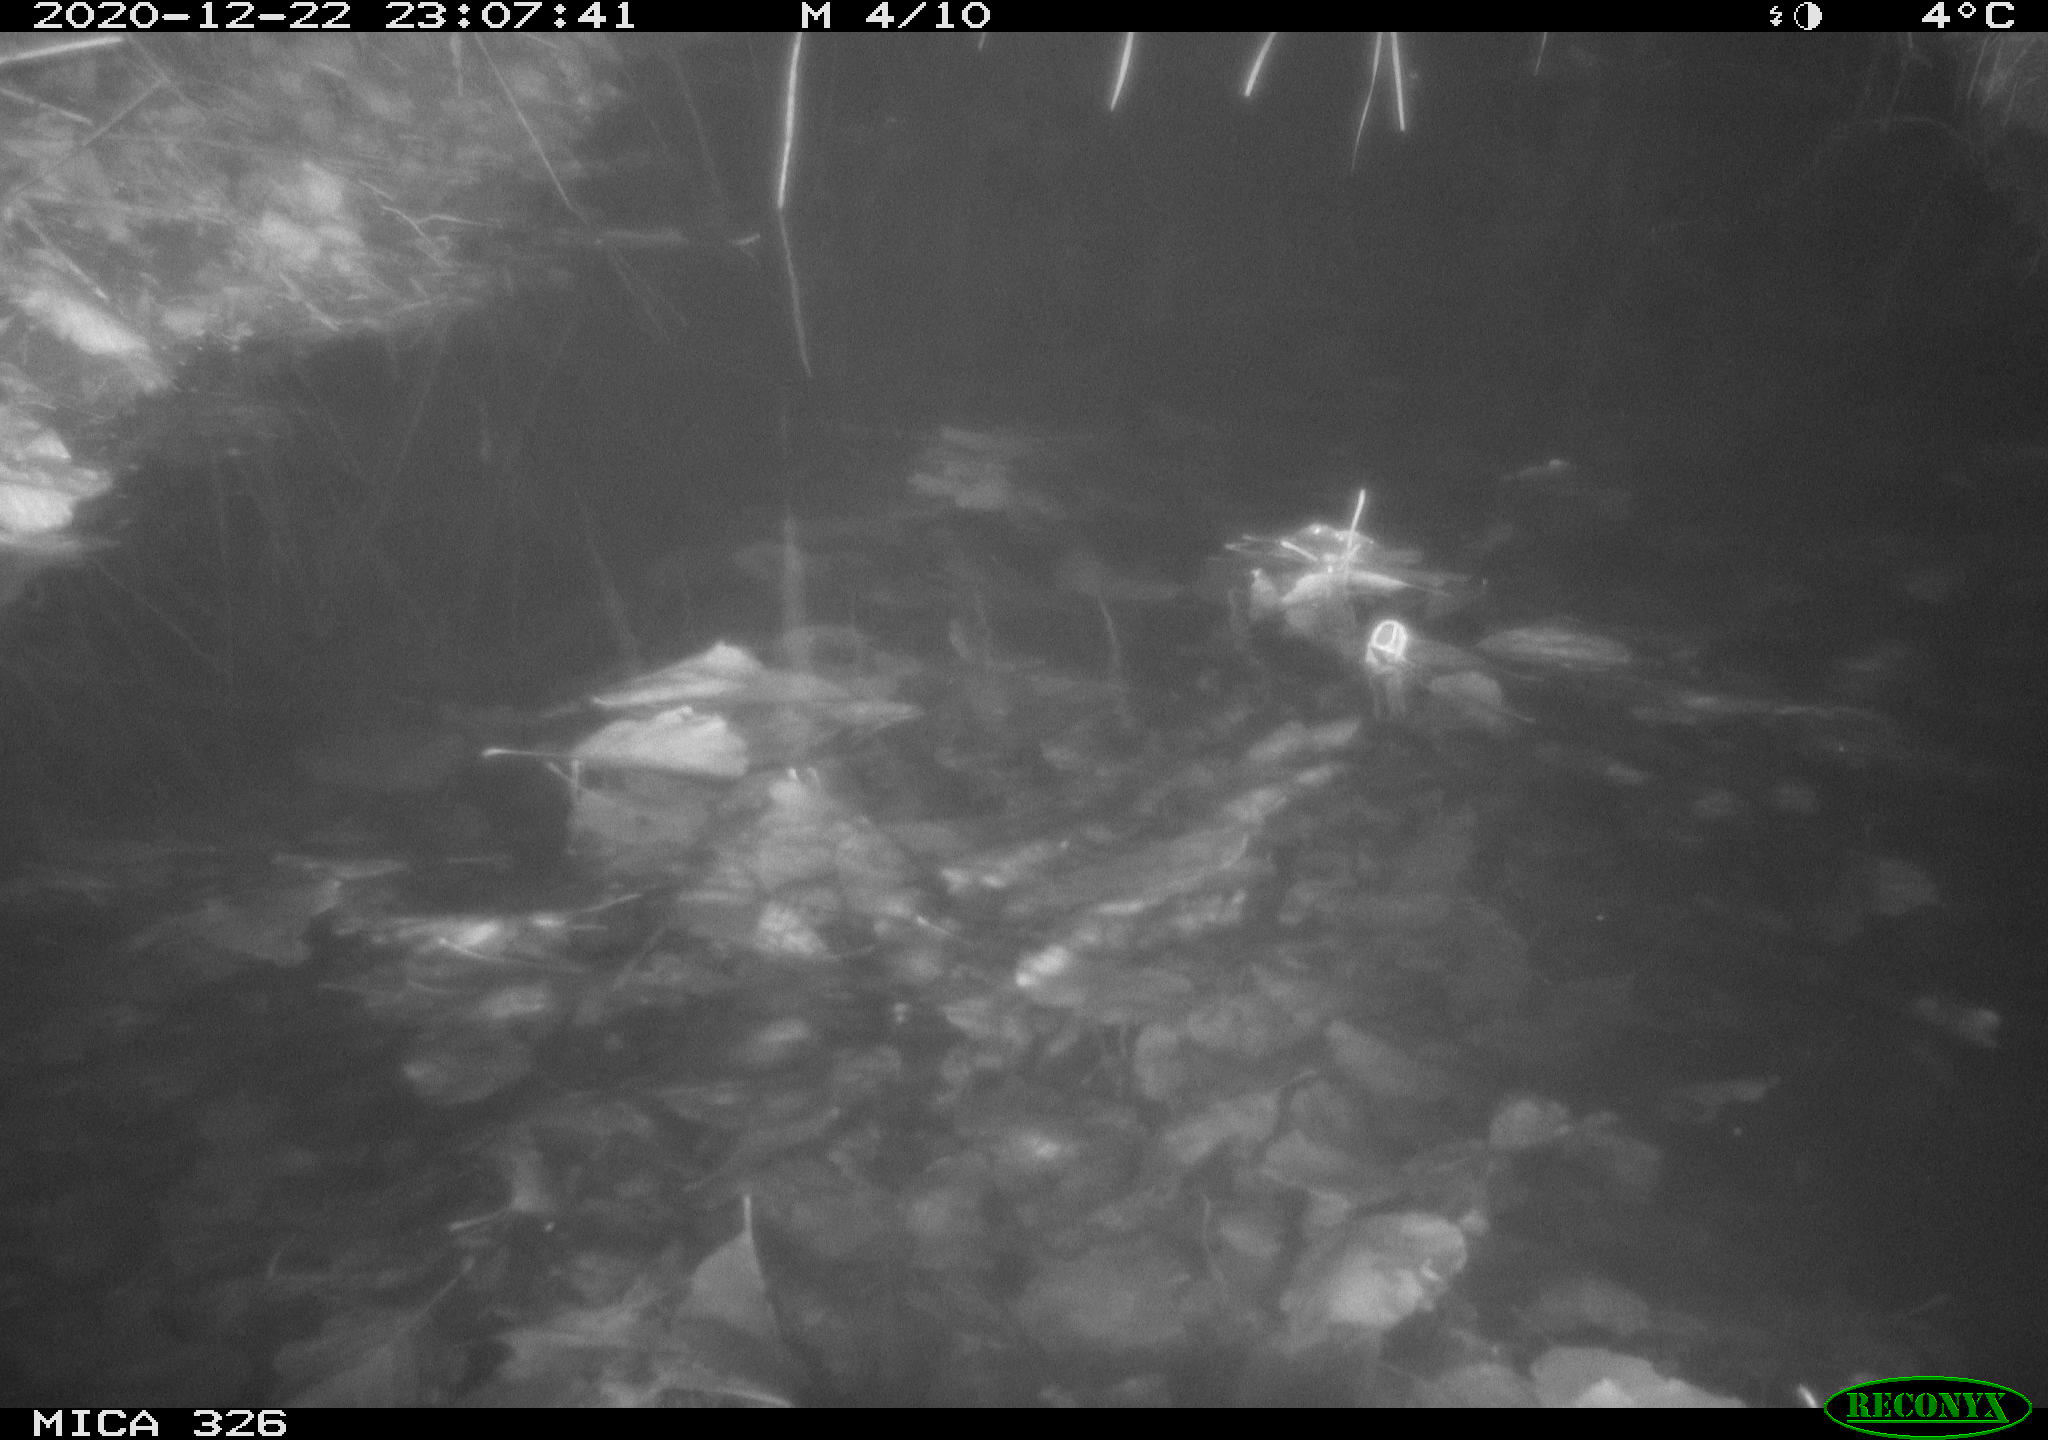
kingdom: Animalia
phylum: Chordata
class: Mammalia
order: Rodentia
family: Cricetidae
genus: Ondatra
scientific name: Ondatra zibethicus
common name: Muskrat
